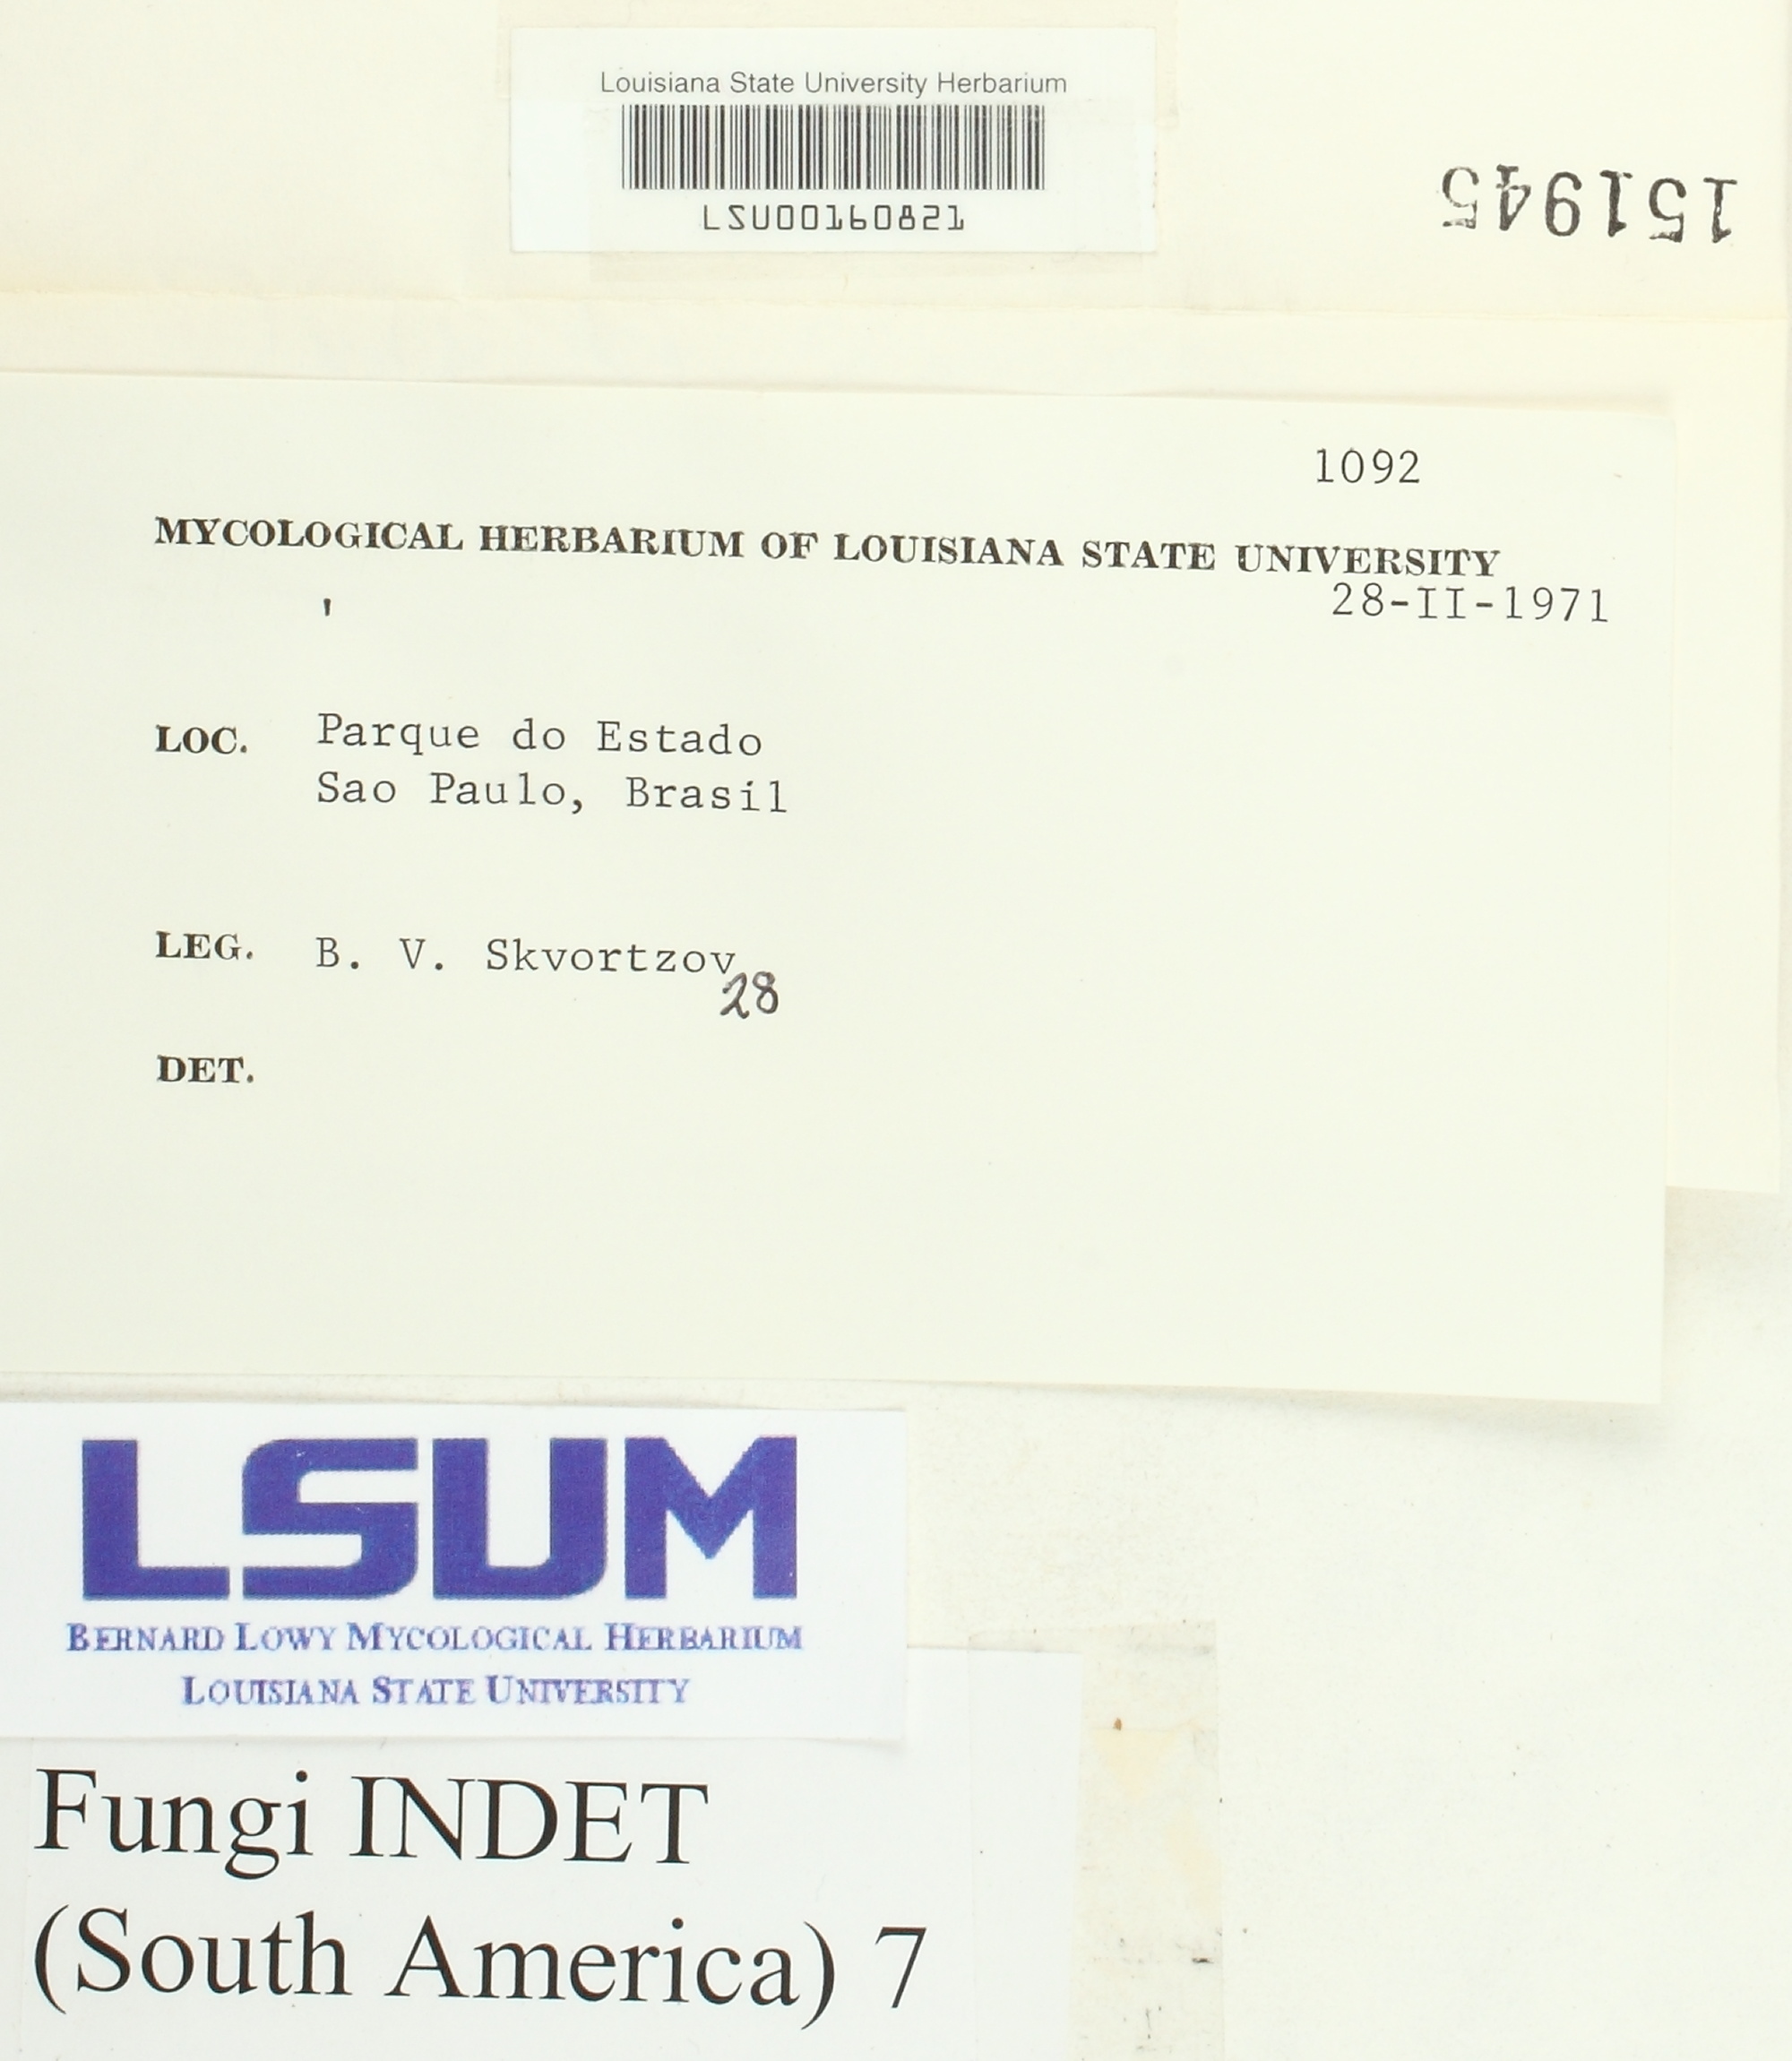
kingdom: Fungi
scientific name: Fungi
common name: Fungi
